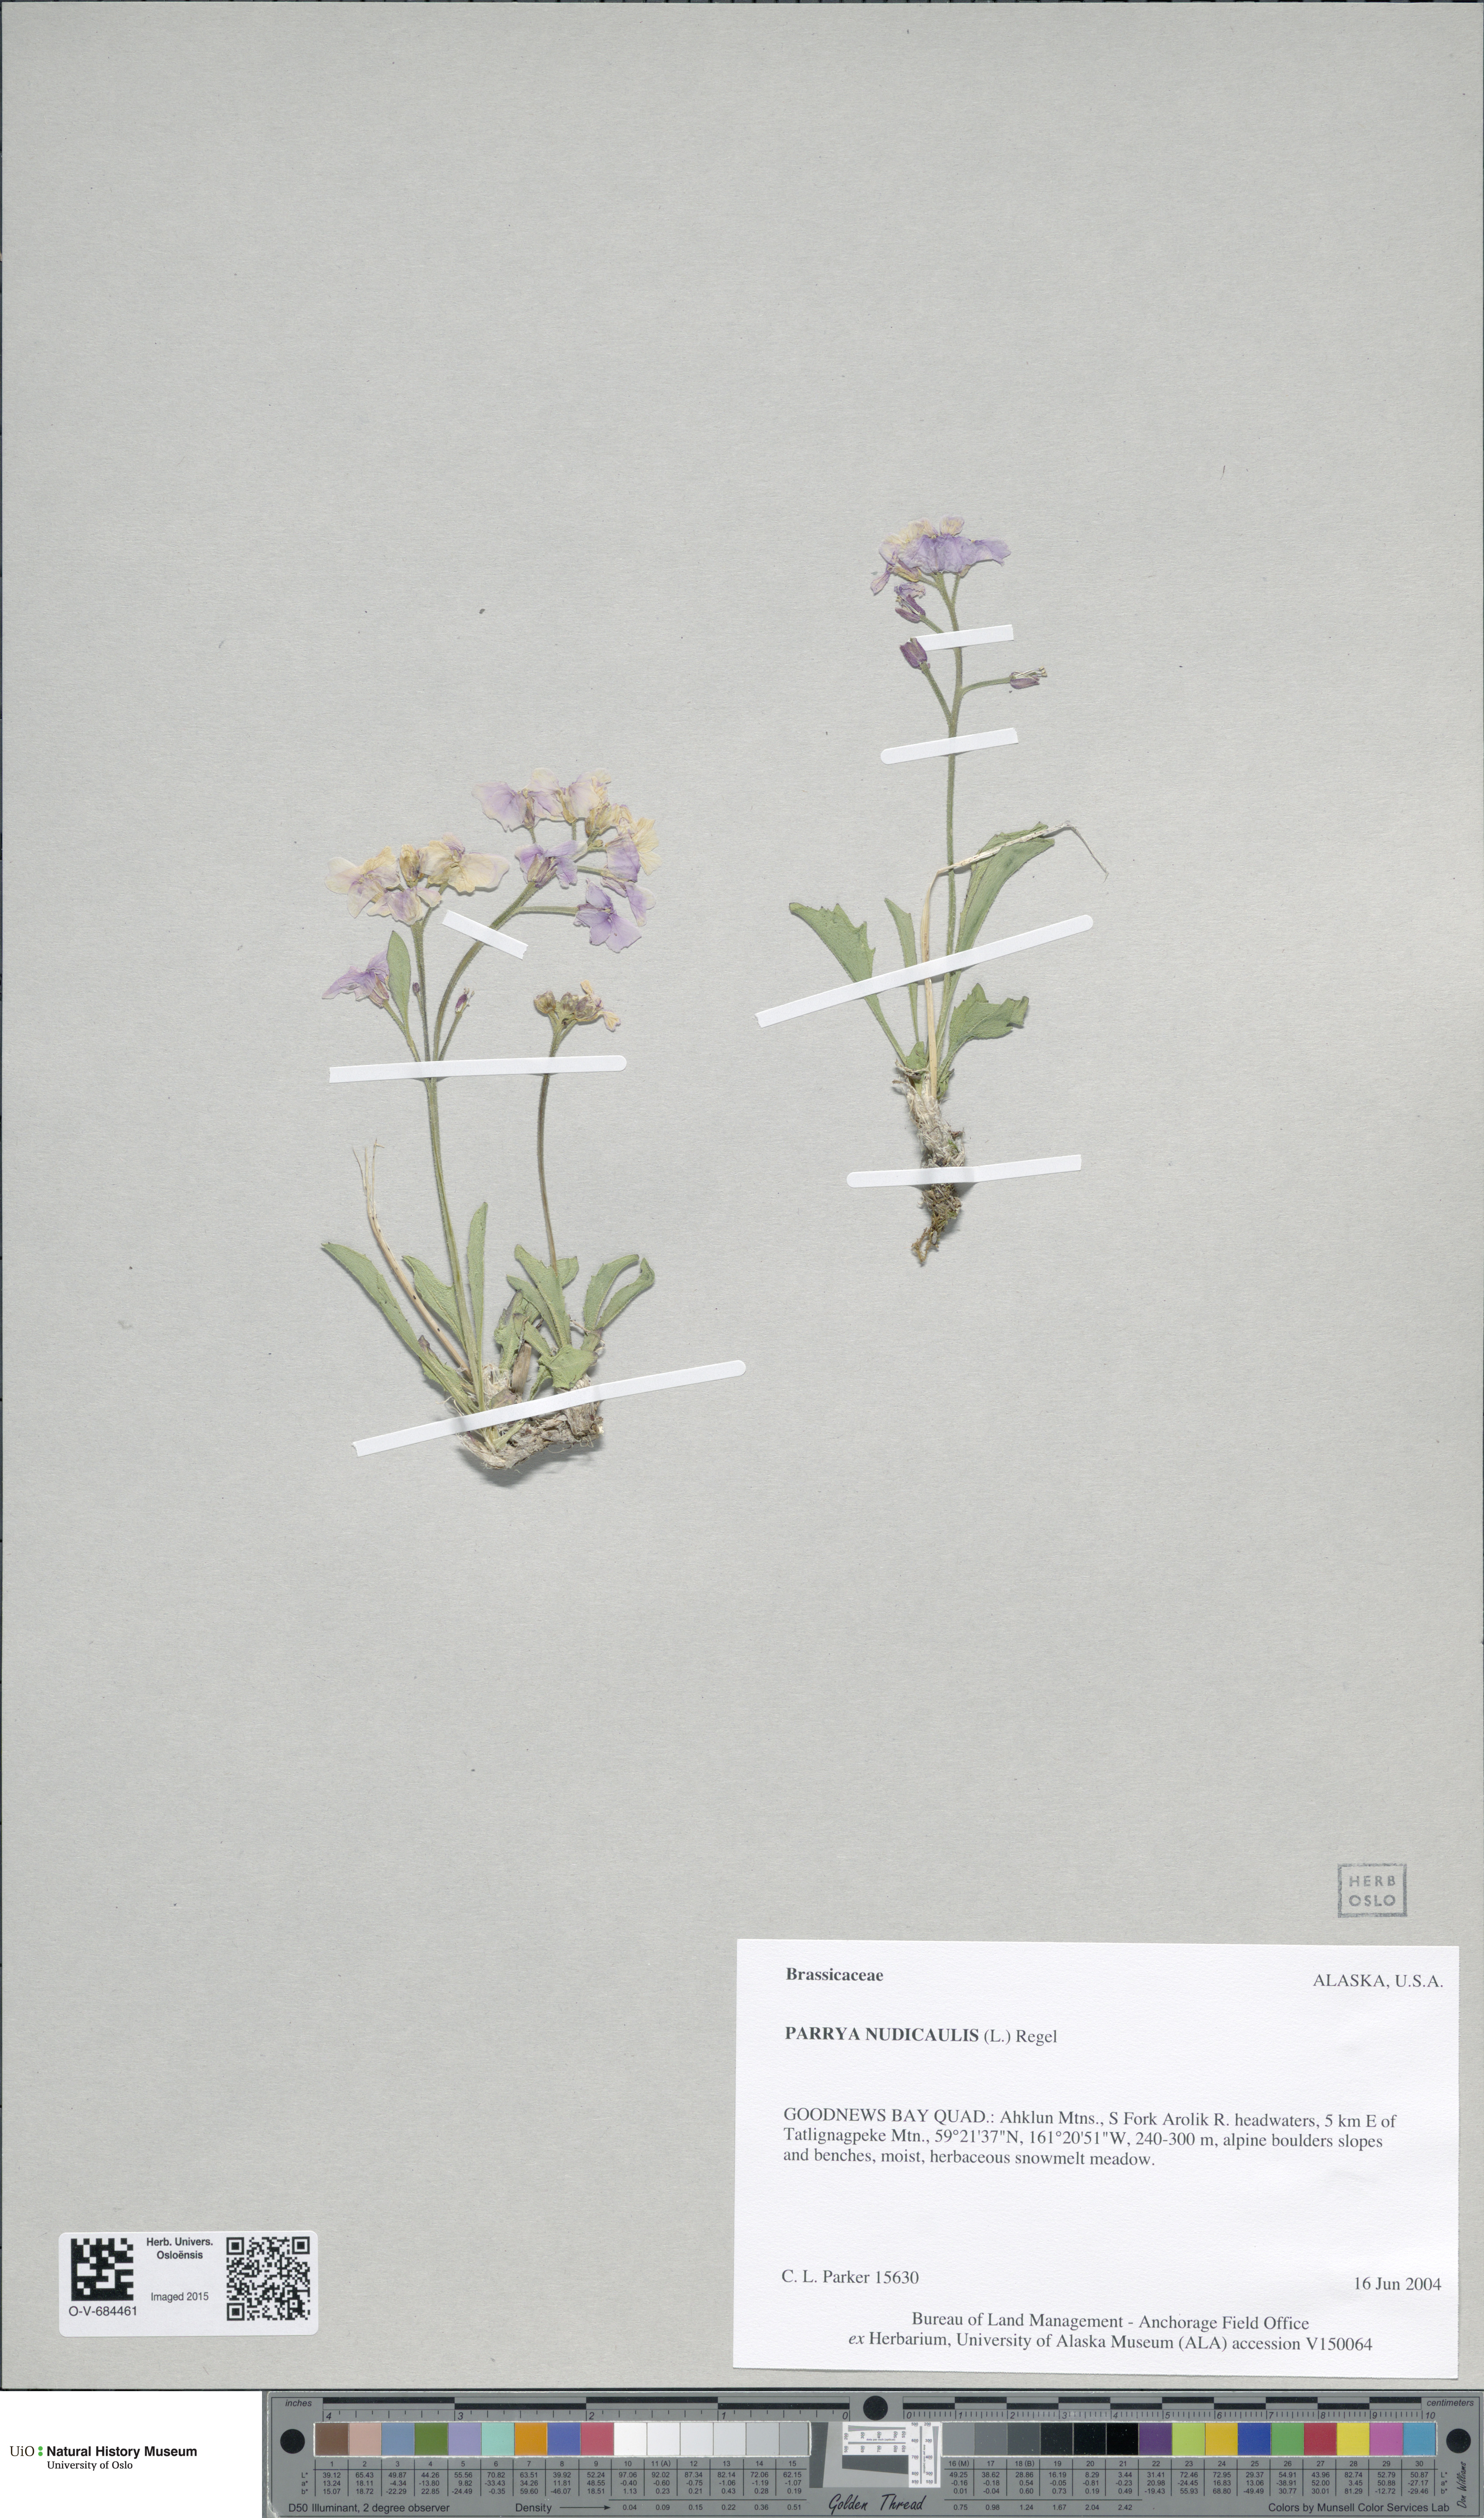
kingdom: Plantae
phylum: Tracheophyta
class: Magnoliopsida
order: Brassicales
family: Brassicaceae
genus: Parrya
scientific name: Parrya nudicaulis
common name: Naked-stemmed false wallflower
